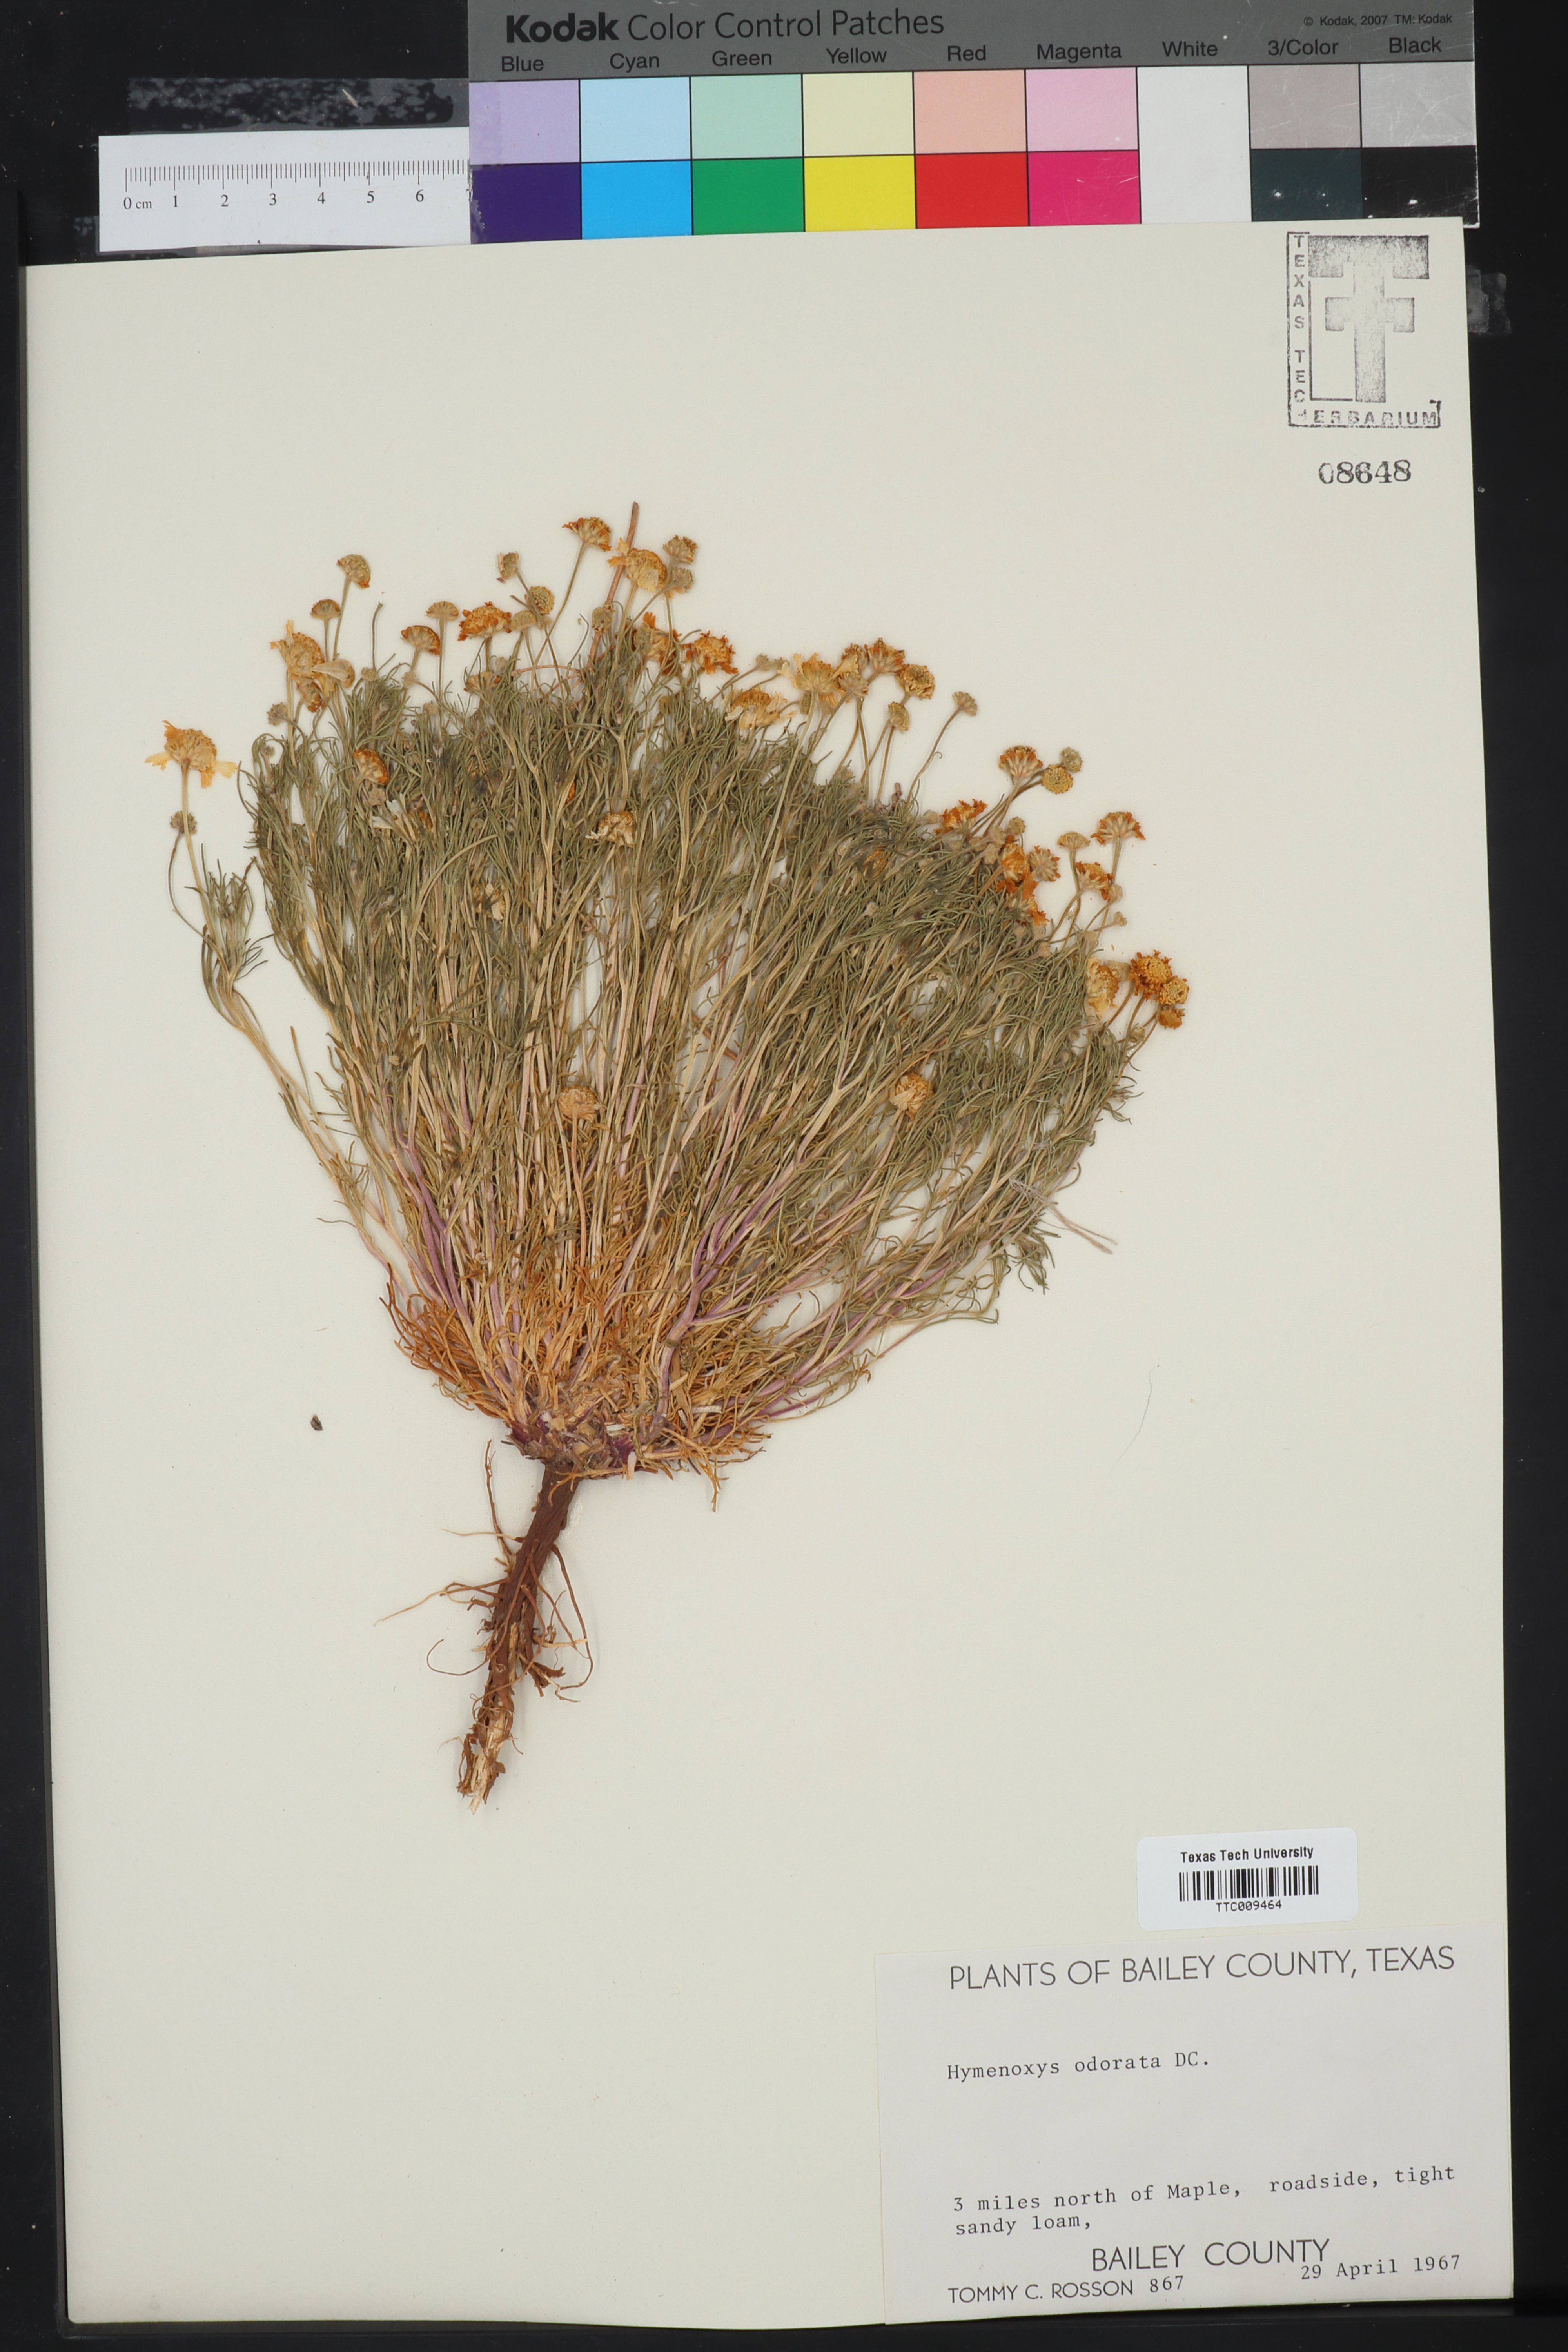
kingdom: Plantae
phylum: Tracheophyta
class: Magnoliopsida
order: Asterales
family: Asteraceae
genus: Hymenoxys
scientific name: Hymenoxys odorata
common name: Bitter rubberweed
